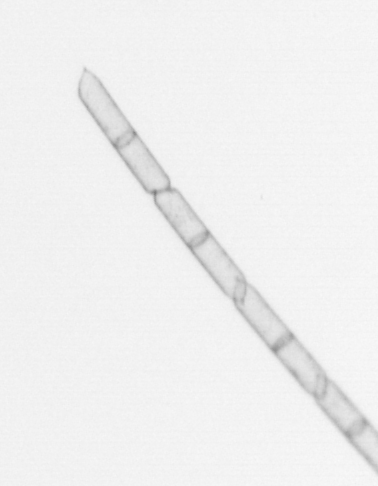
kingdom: Chromista
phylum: Ochrophyta
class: Bacillariophyceae
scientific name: Bacillariophyceae
